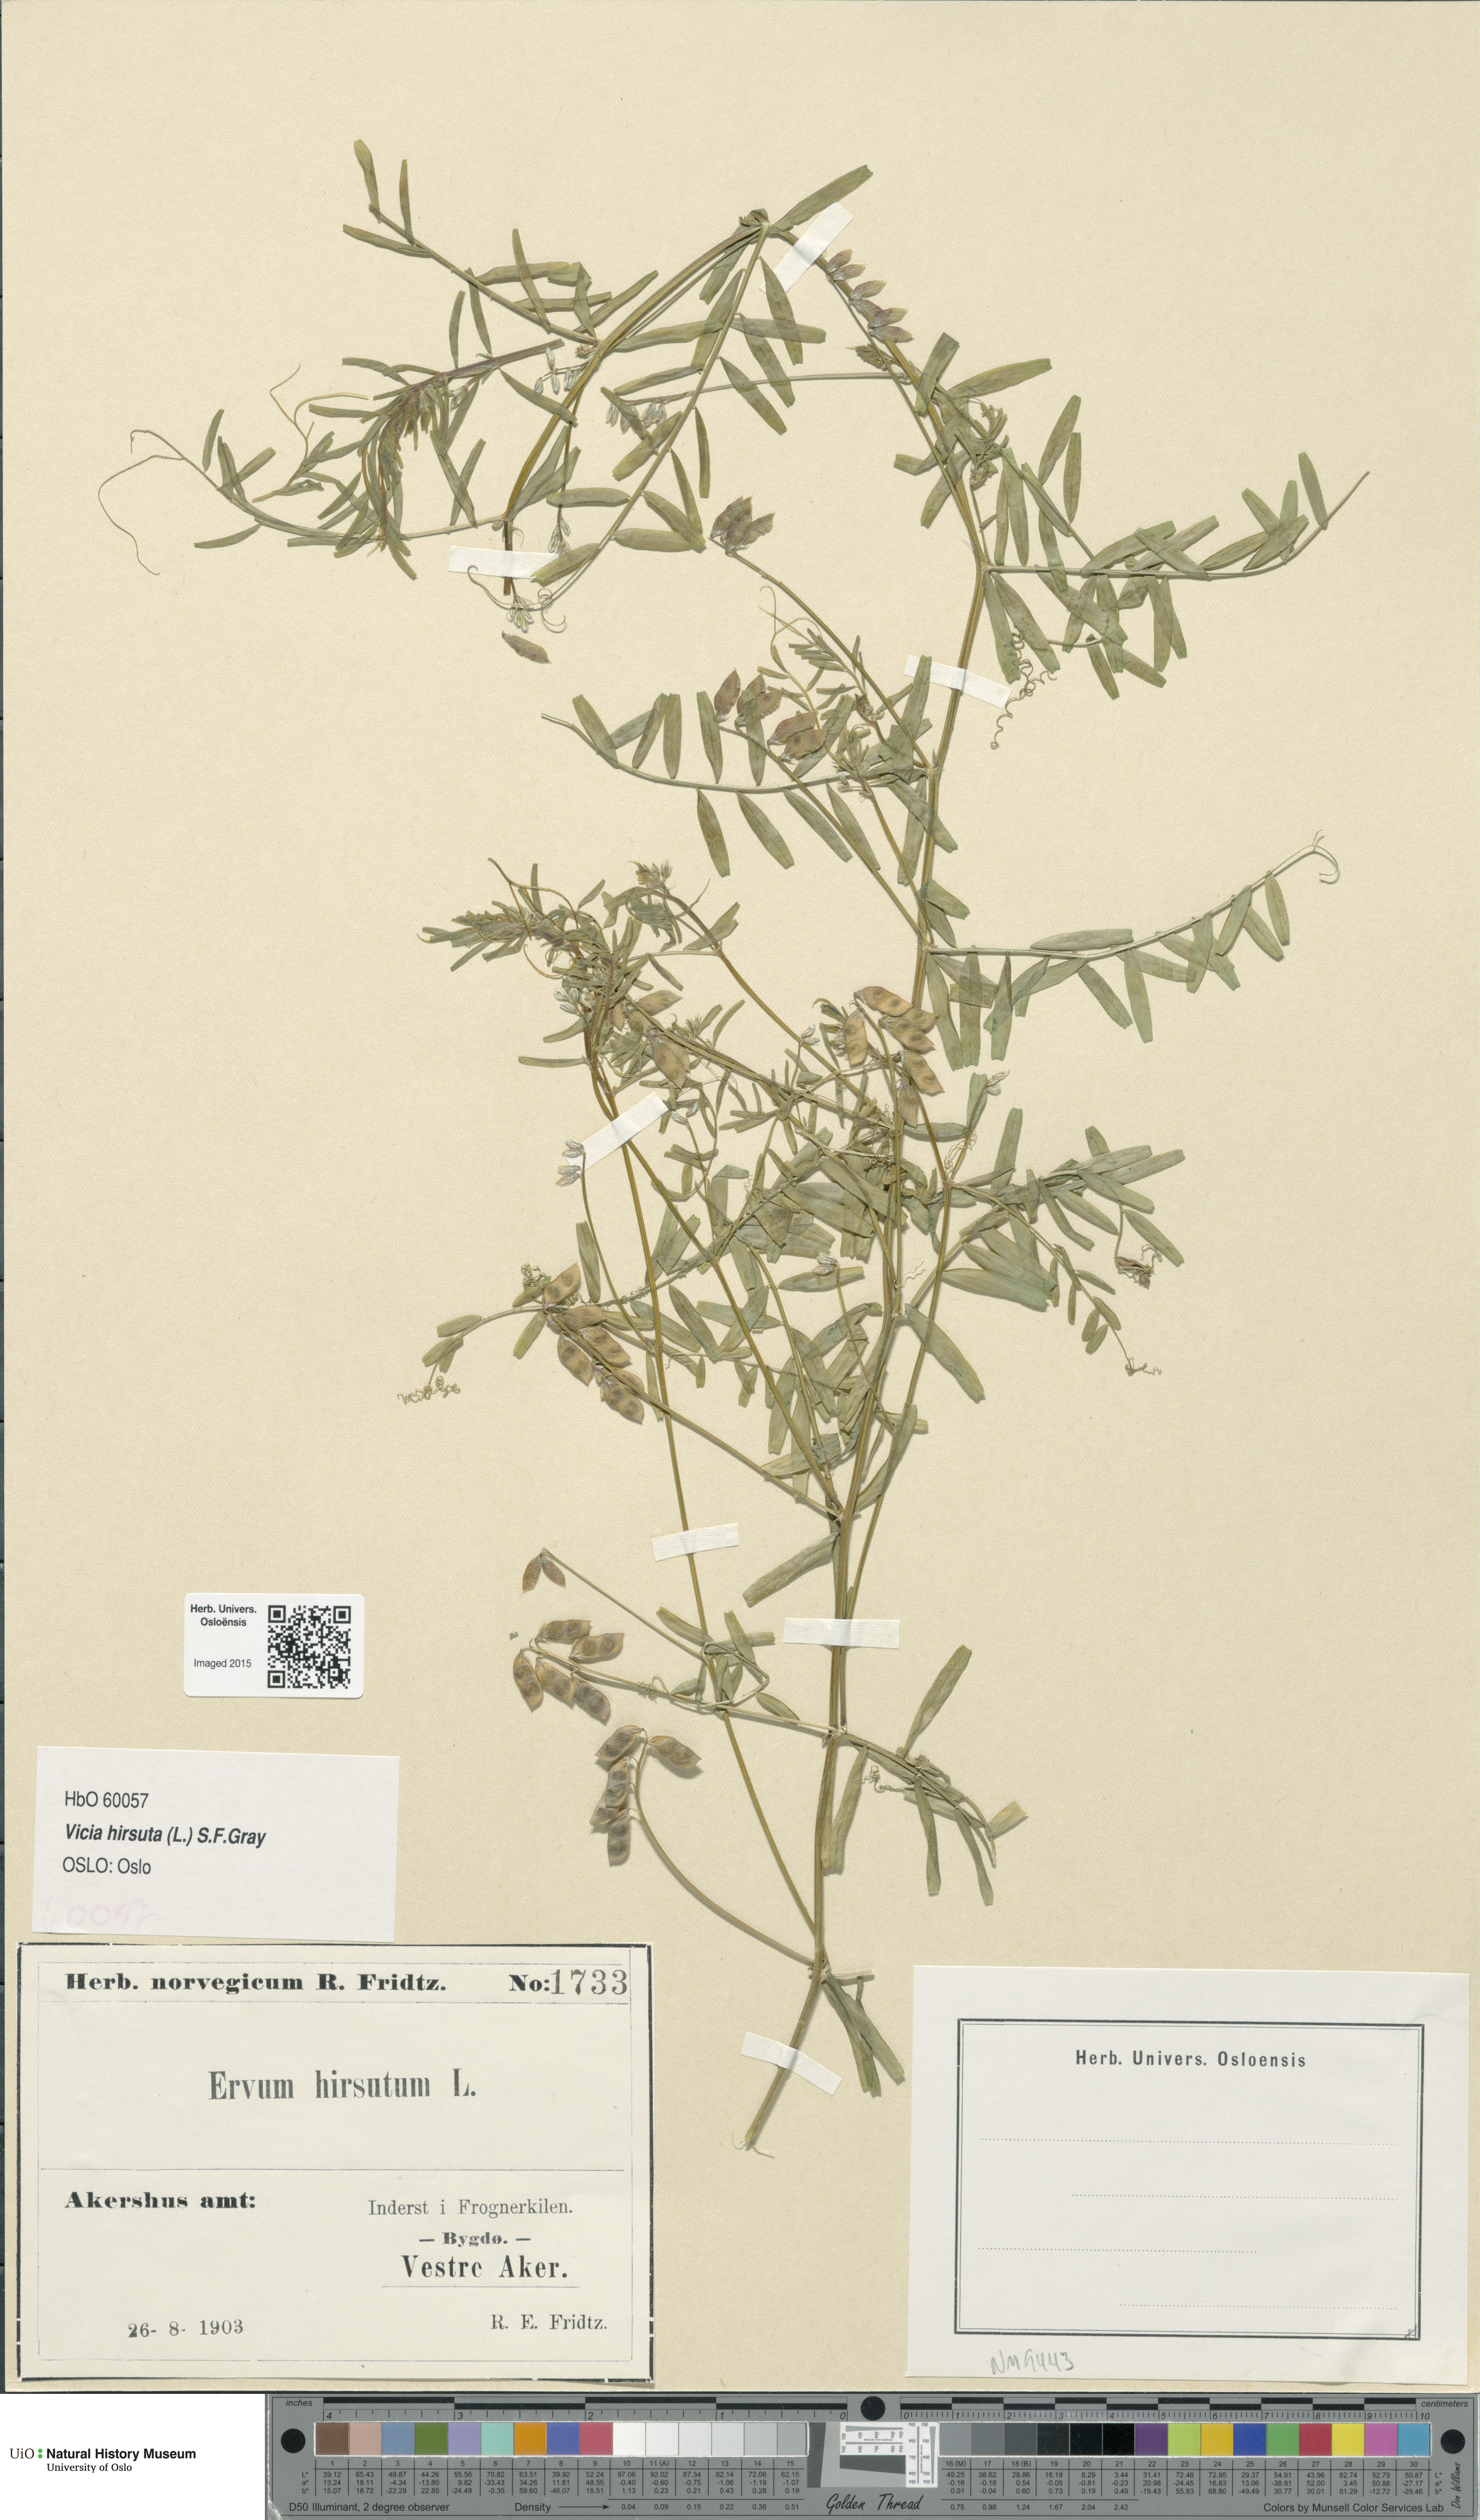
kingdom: Plantae
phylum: Tracheophyta
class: Magnoliopsida
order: Fabales
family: Fabaceae
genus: Vicia
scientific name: Vicia hirsuta
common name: Tiny vetch
